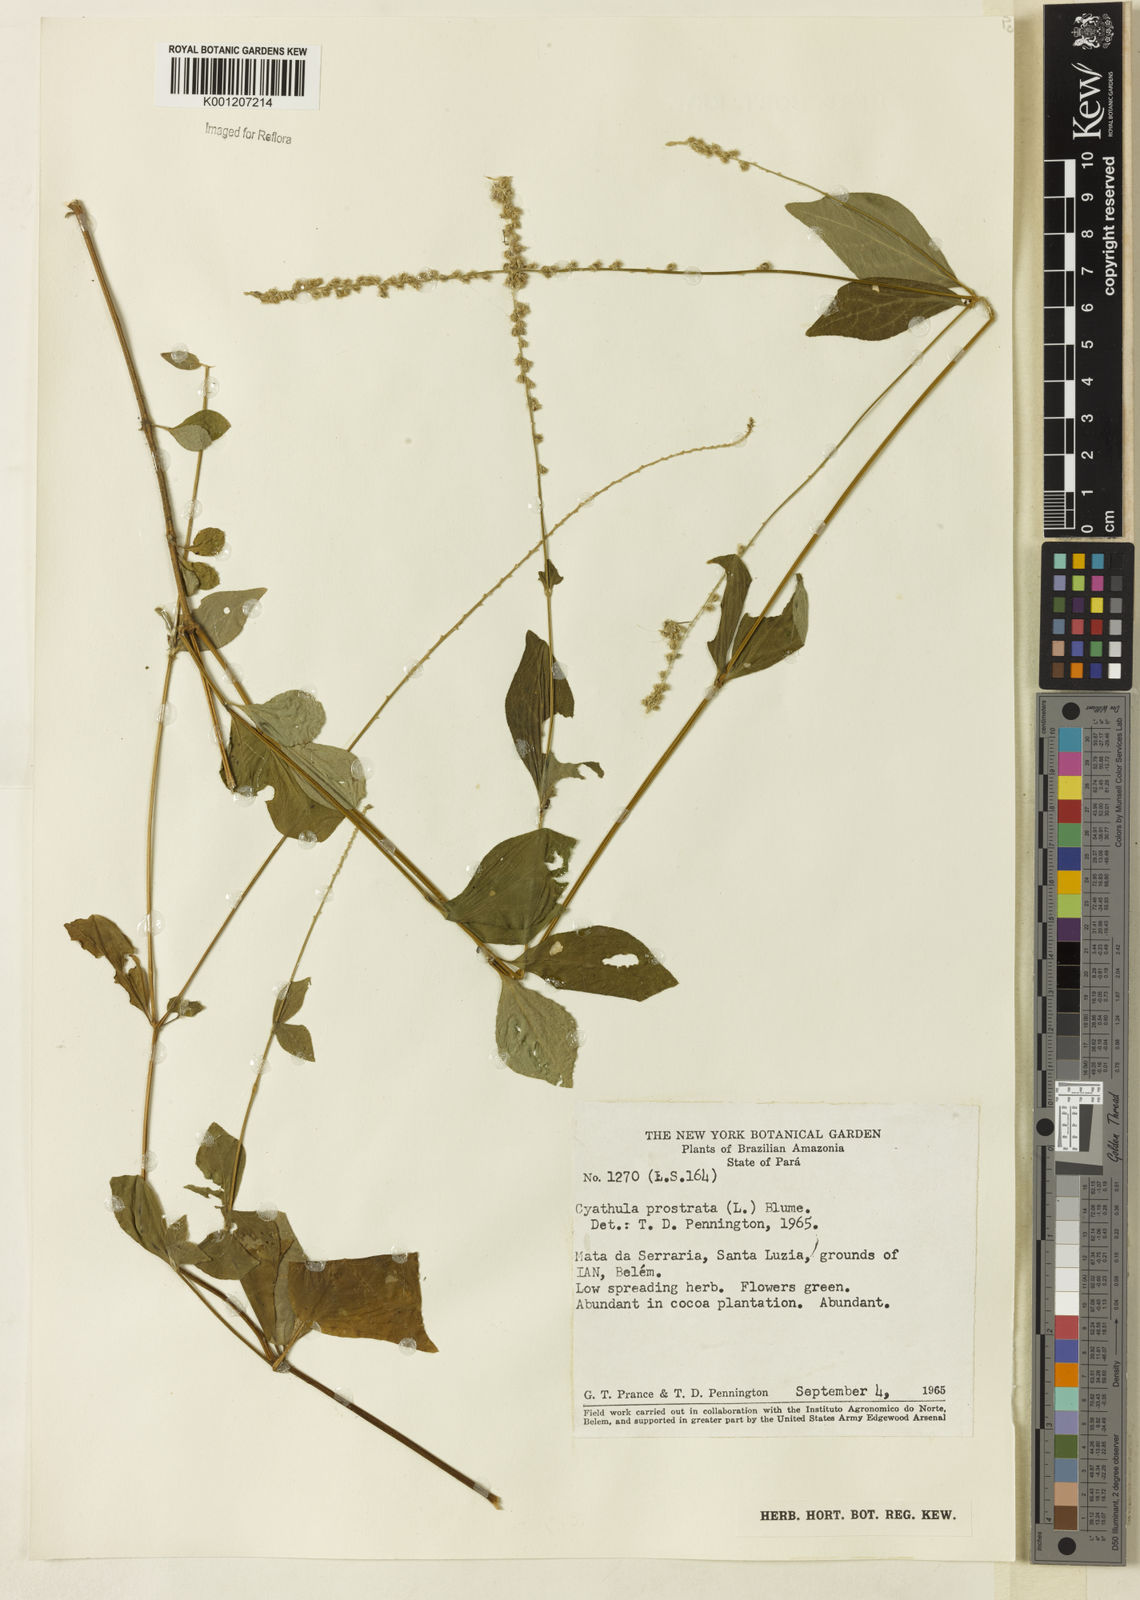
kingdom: Plantae
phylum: Tracheophyta
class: Magnoliopsida
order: Caryophyllales
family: Amaranthaceae
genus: Cyathula
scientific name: Cyathula prostrata
